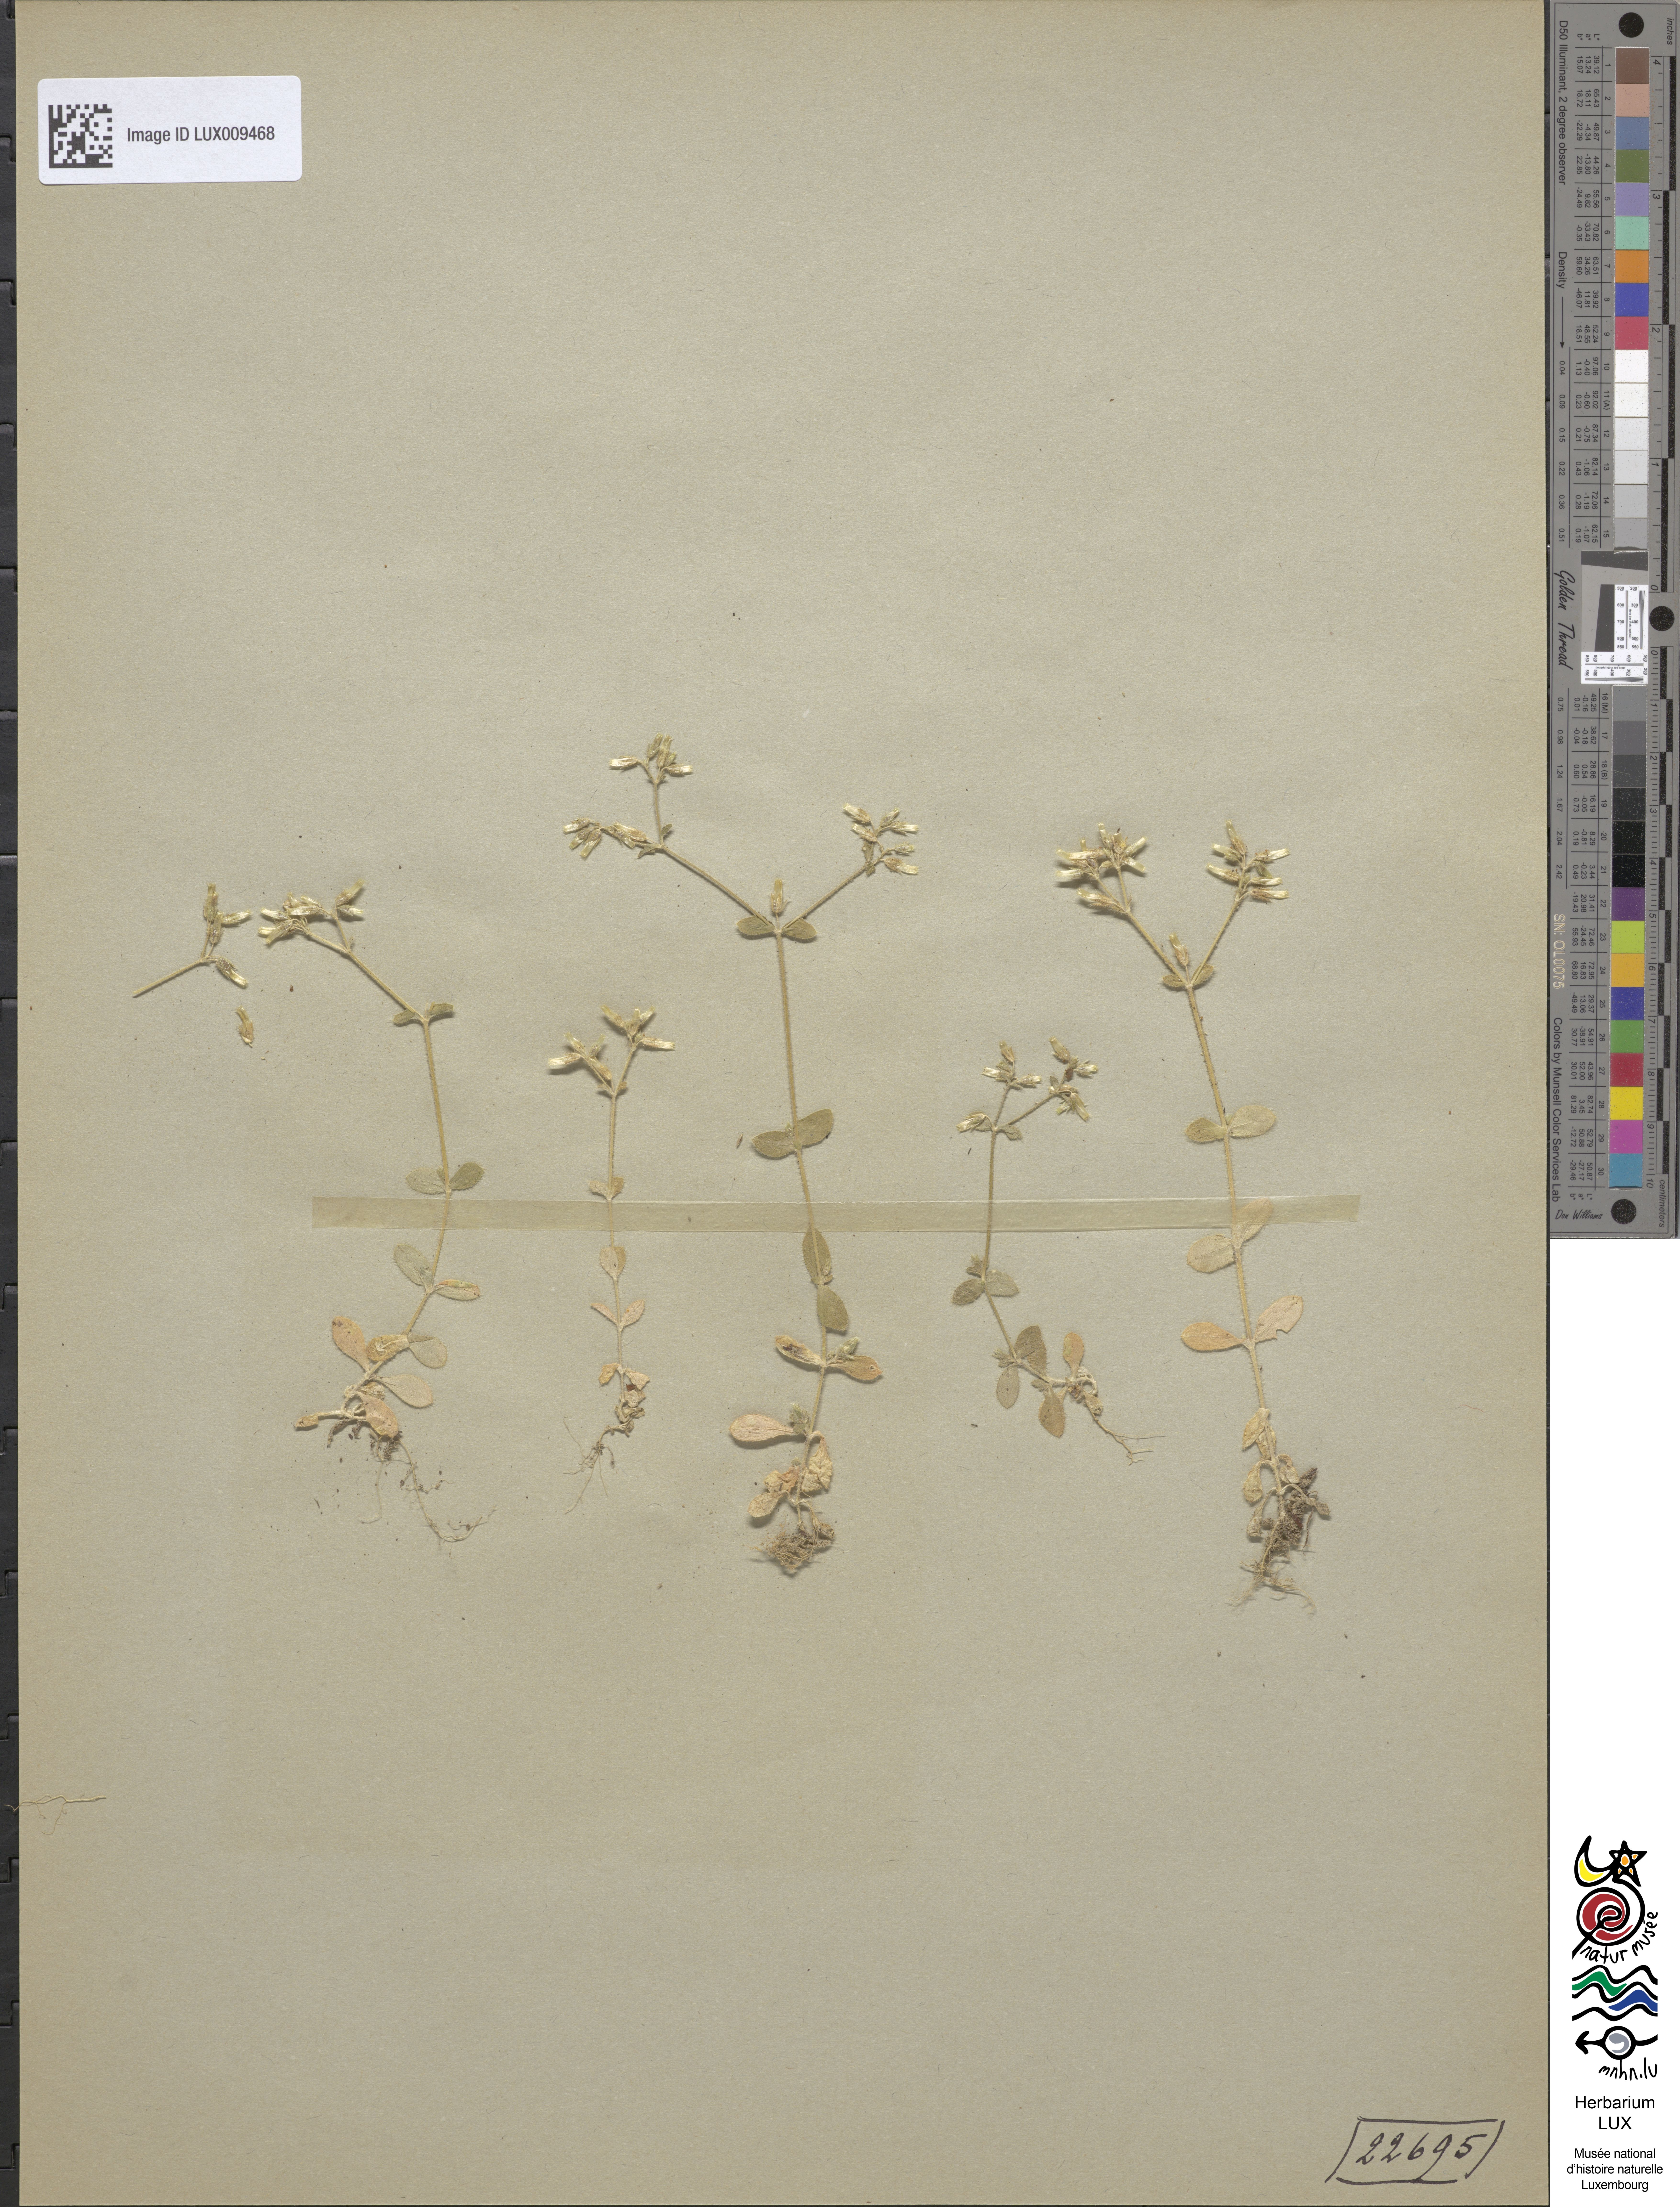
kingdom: Plantae
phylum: Tracheophyta
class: Magnoliopsida
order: Caryophyllales
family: Caryophyllaceae
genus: Cerastium
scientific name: Cerastium glomeratum
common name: Sticky chickweed
